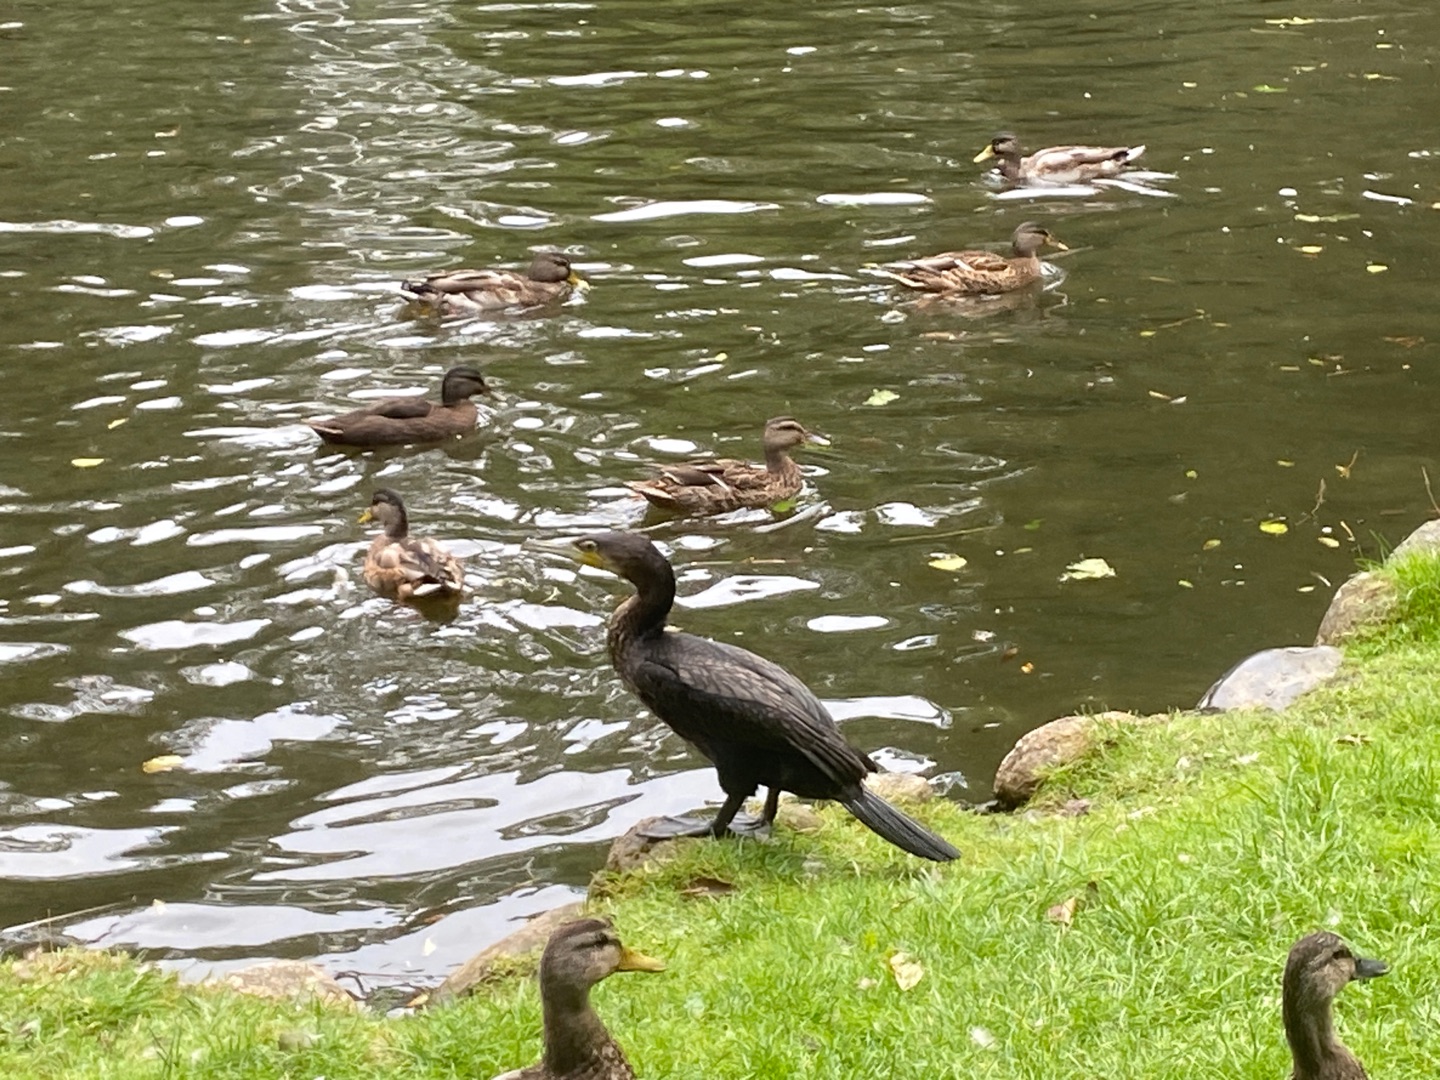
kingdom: Animalia
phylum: Chordata
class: Aves
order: Suliformes
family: Phalacrocoracidae
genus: Phalacrocorax
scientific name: Phalacrocorax carbo
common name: Skarv
